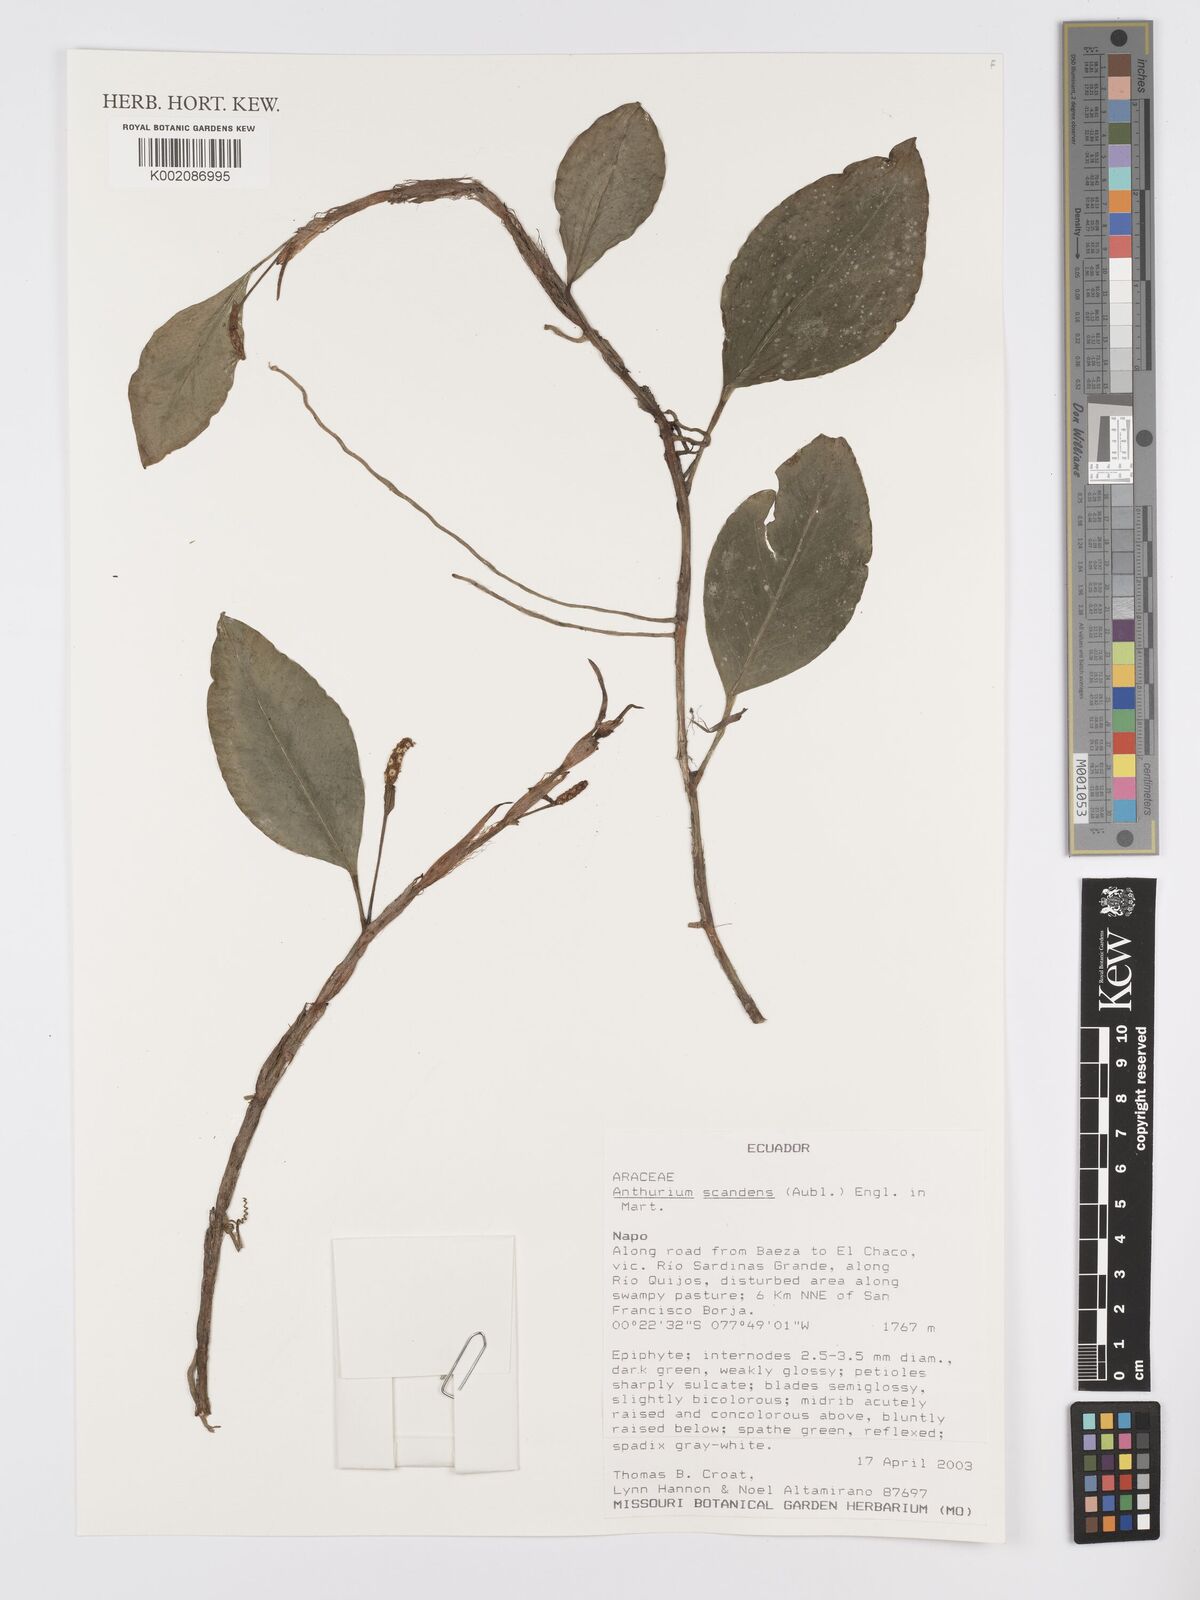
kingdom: Plantae
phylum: Tracheophyta
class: Liliopsida
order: Alismatales
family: Araceae
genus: Anthurium
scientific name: Anthurium scandens
